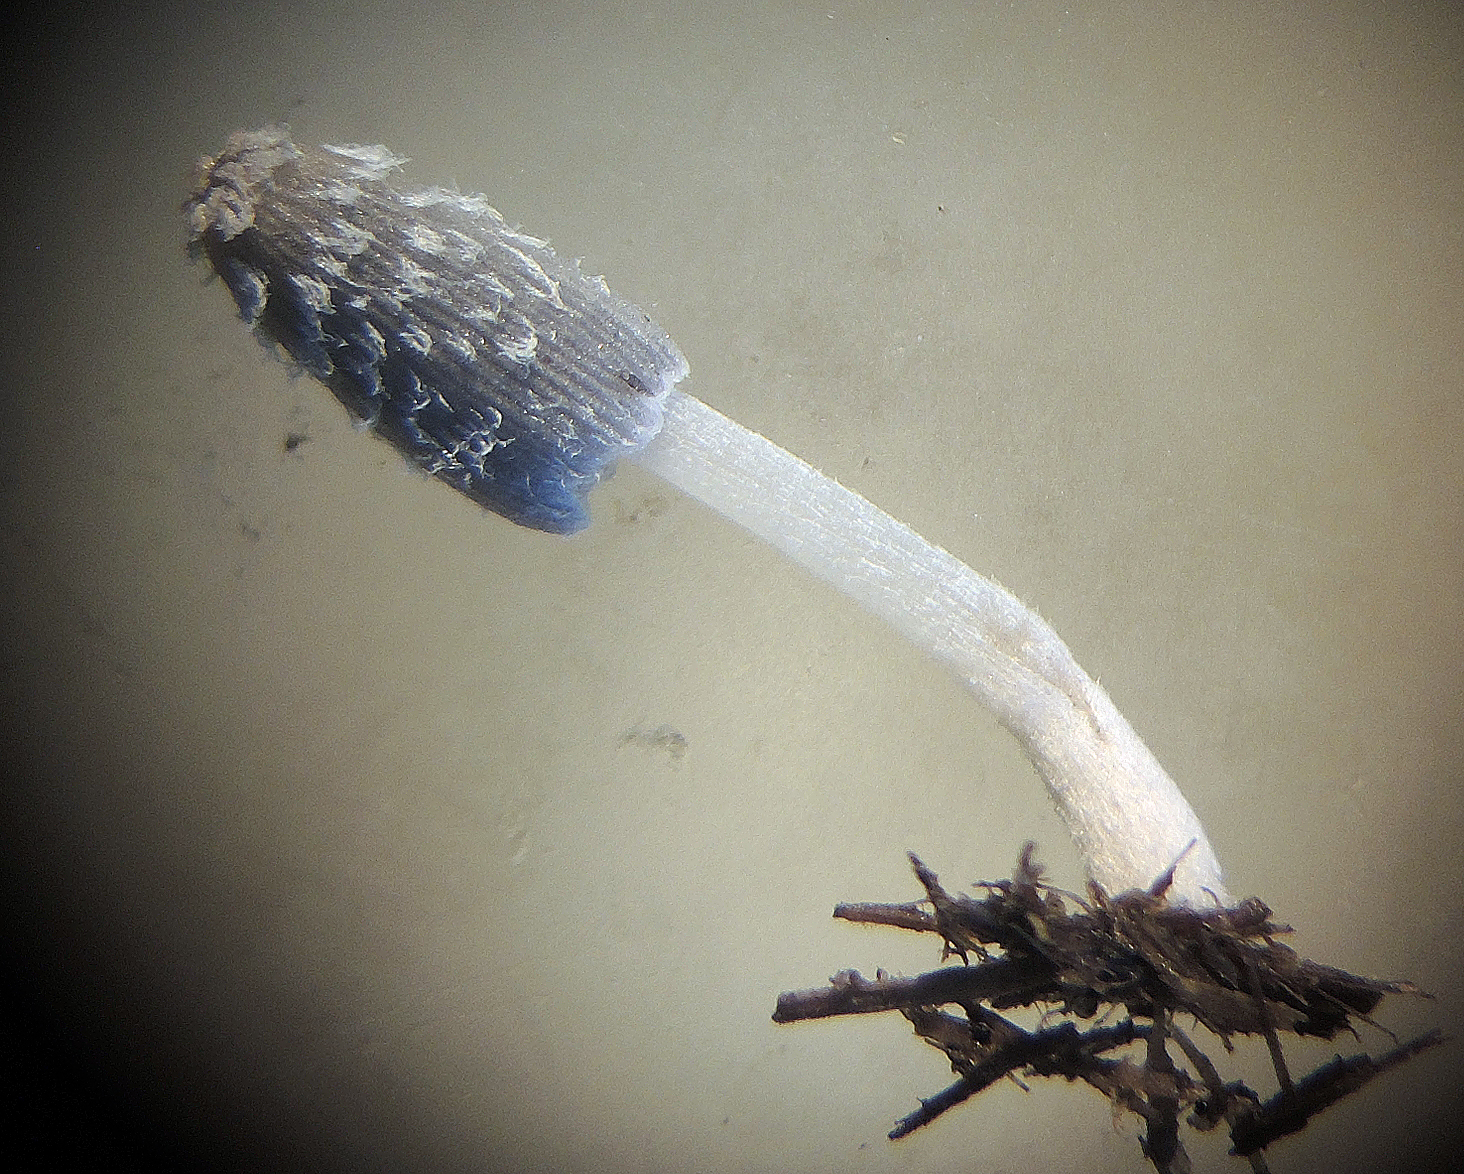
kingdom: Fungi
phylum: Basidiomycota
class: Agaricomycetes
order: Agaricales
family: Psathyrellaceae
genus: Coprinopsis
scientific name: Coprinopsis bicornis
